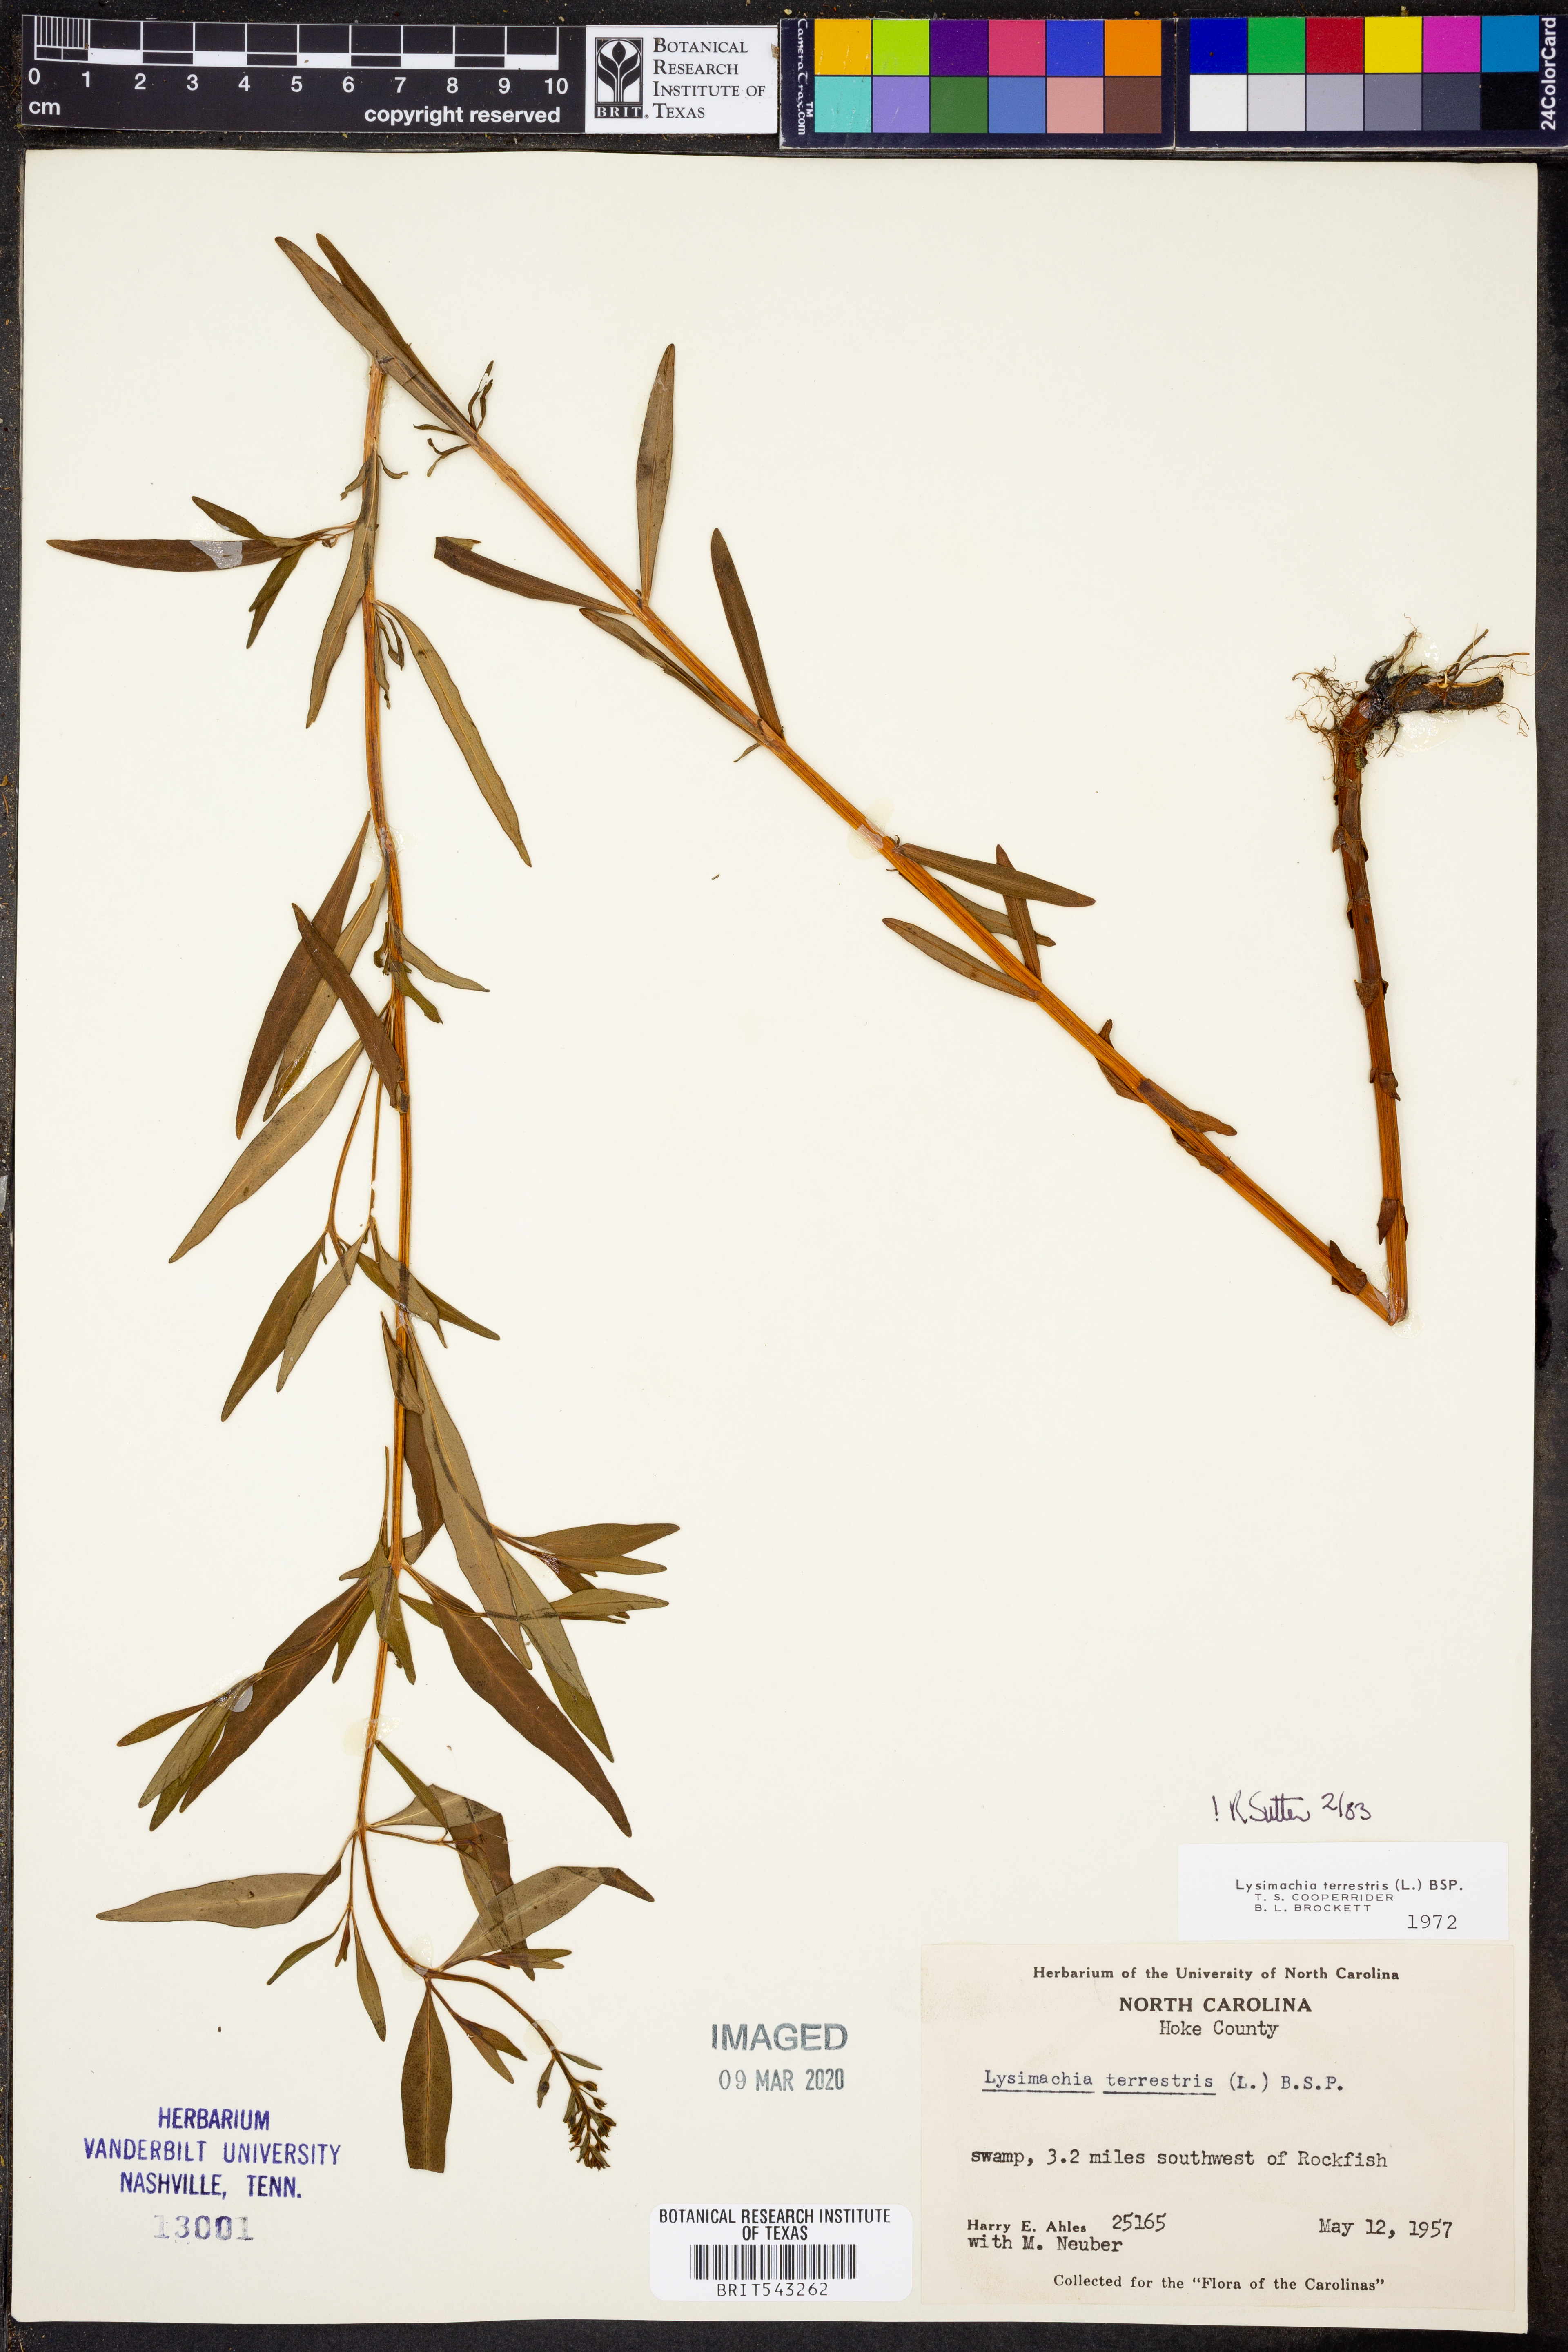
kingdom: Plantae
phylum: Tracheophyta
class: Magnoliopsida
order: Ericales
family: Primulaceae
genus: Lysimachia
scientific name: Lysimachia terrestris
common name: Lake loosestrife
